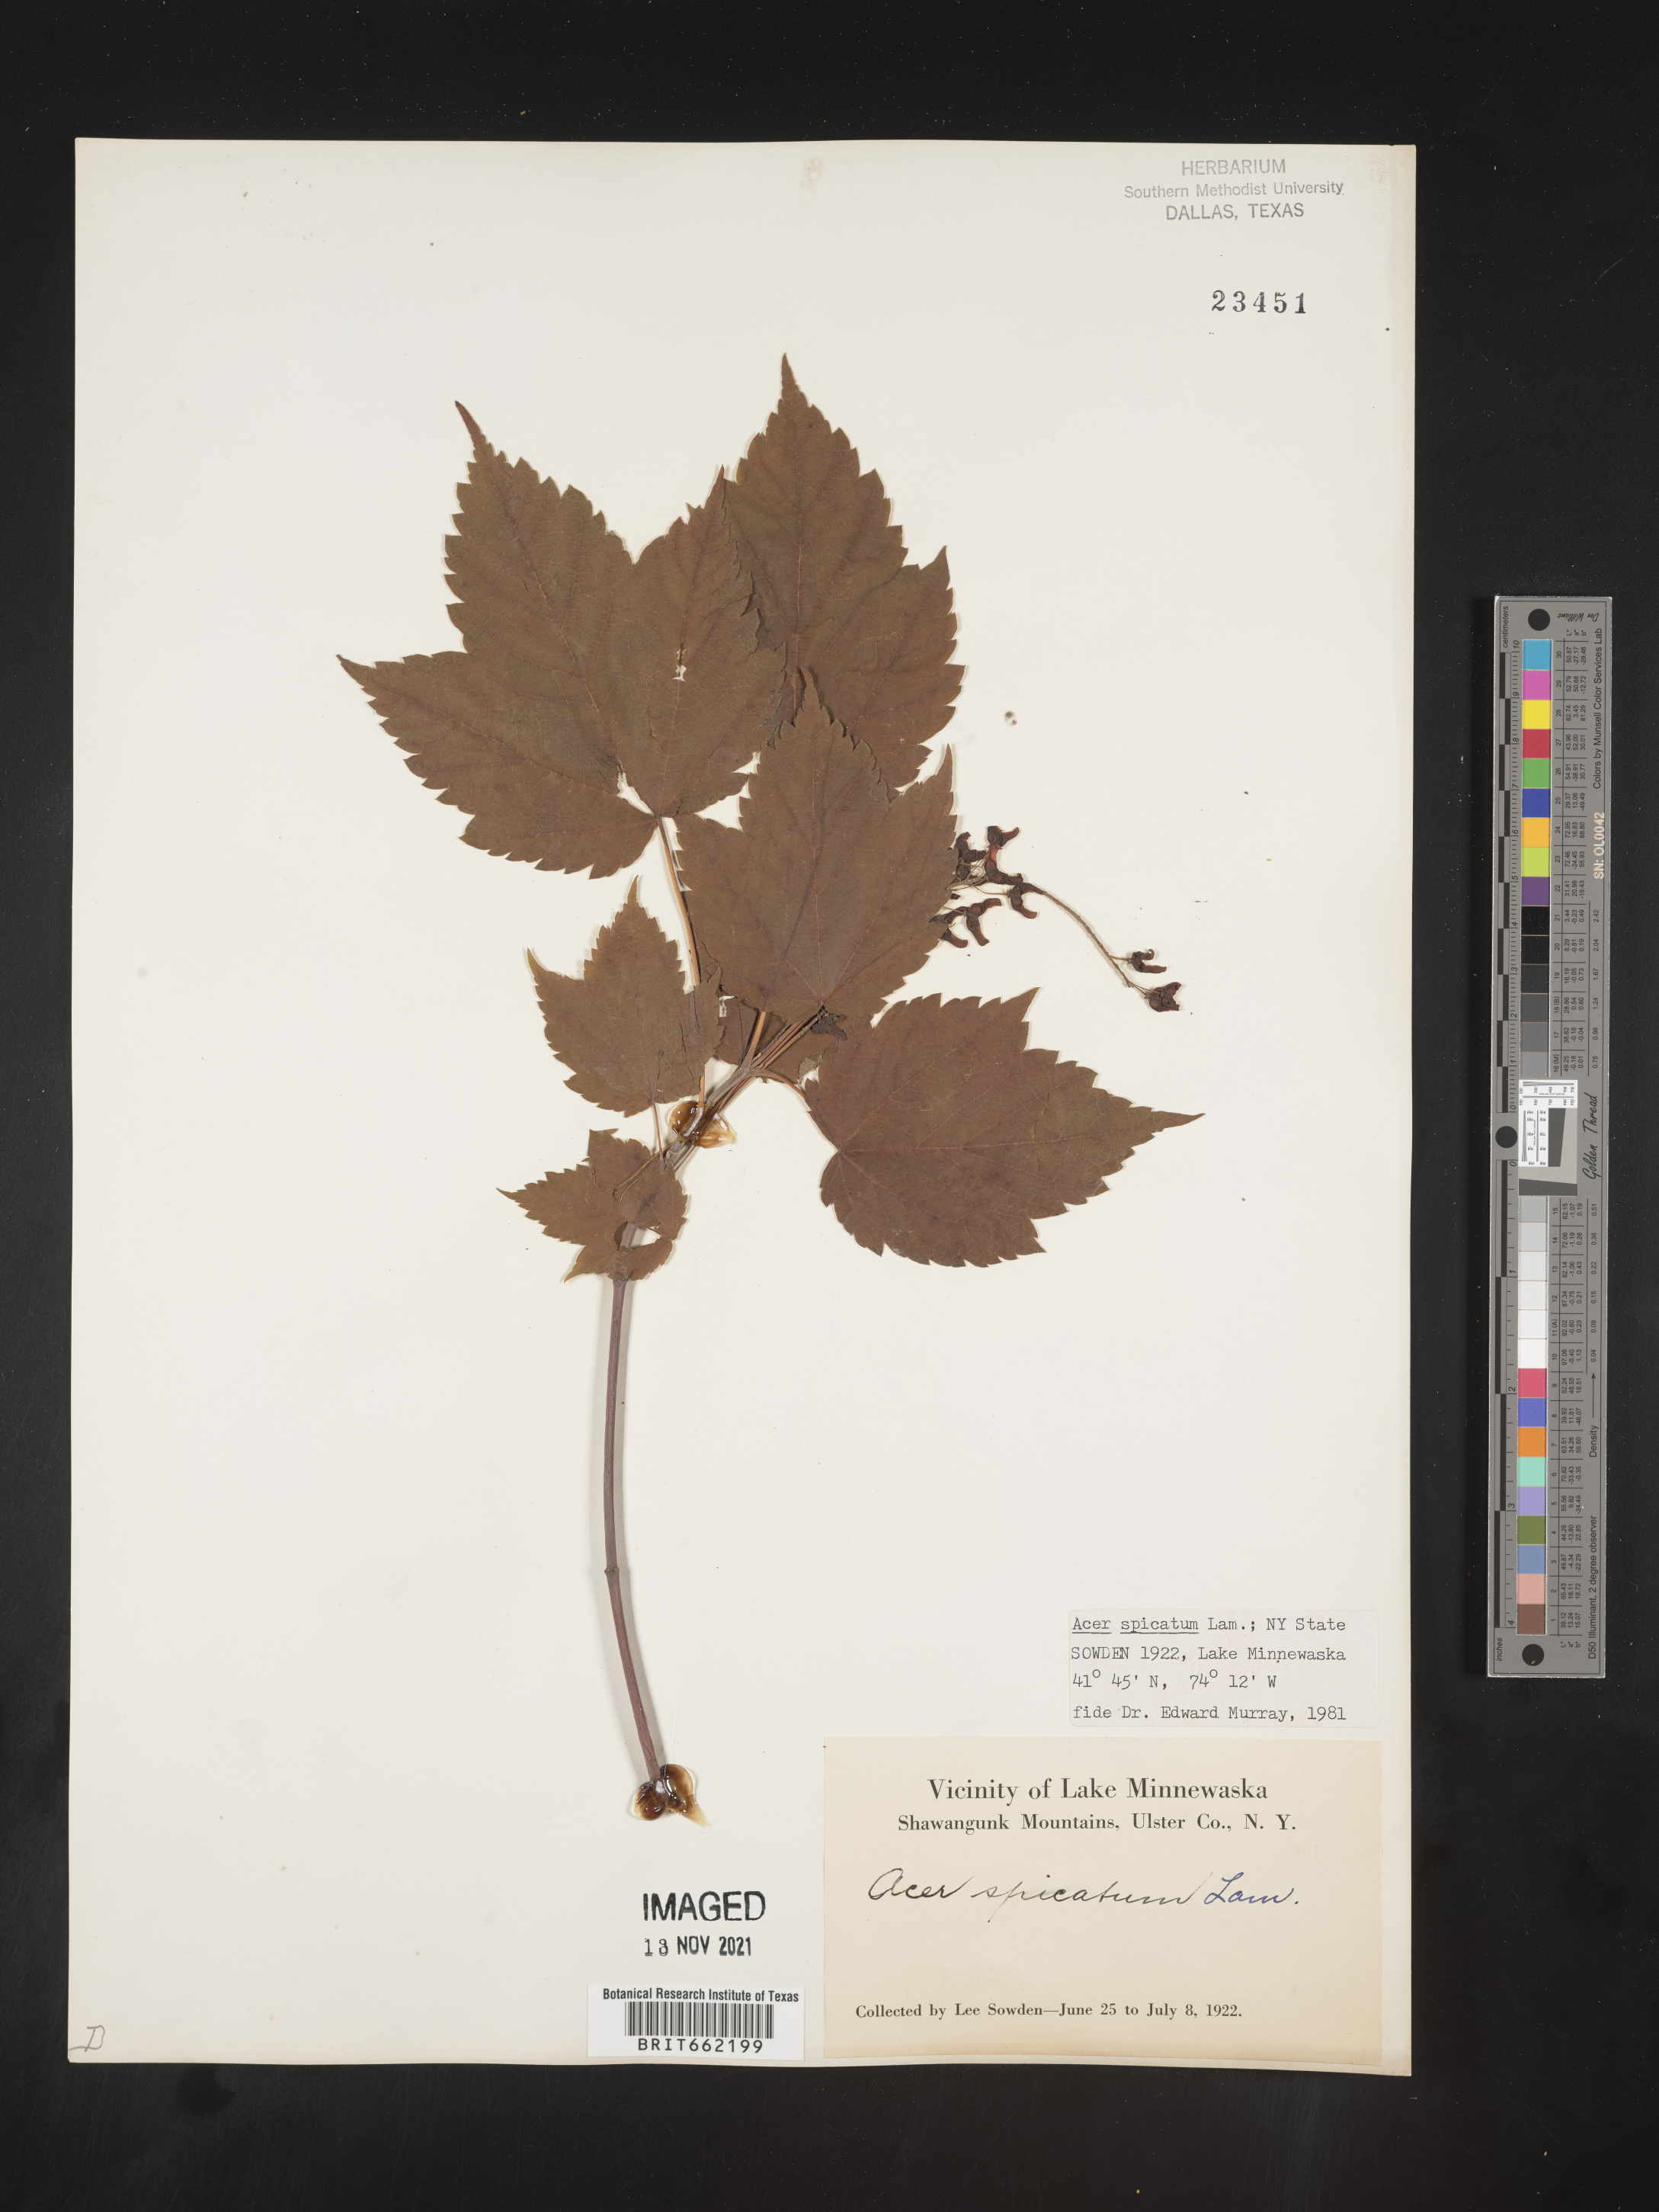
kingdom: Plantae
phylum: Tracheophyta
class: Magnoliopsida
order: Sapindales
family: Sapindaceae
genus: Acer
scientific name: Acer spicatum
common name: Mountain maple
